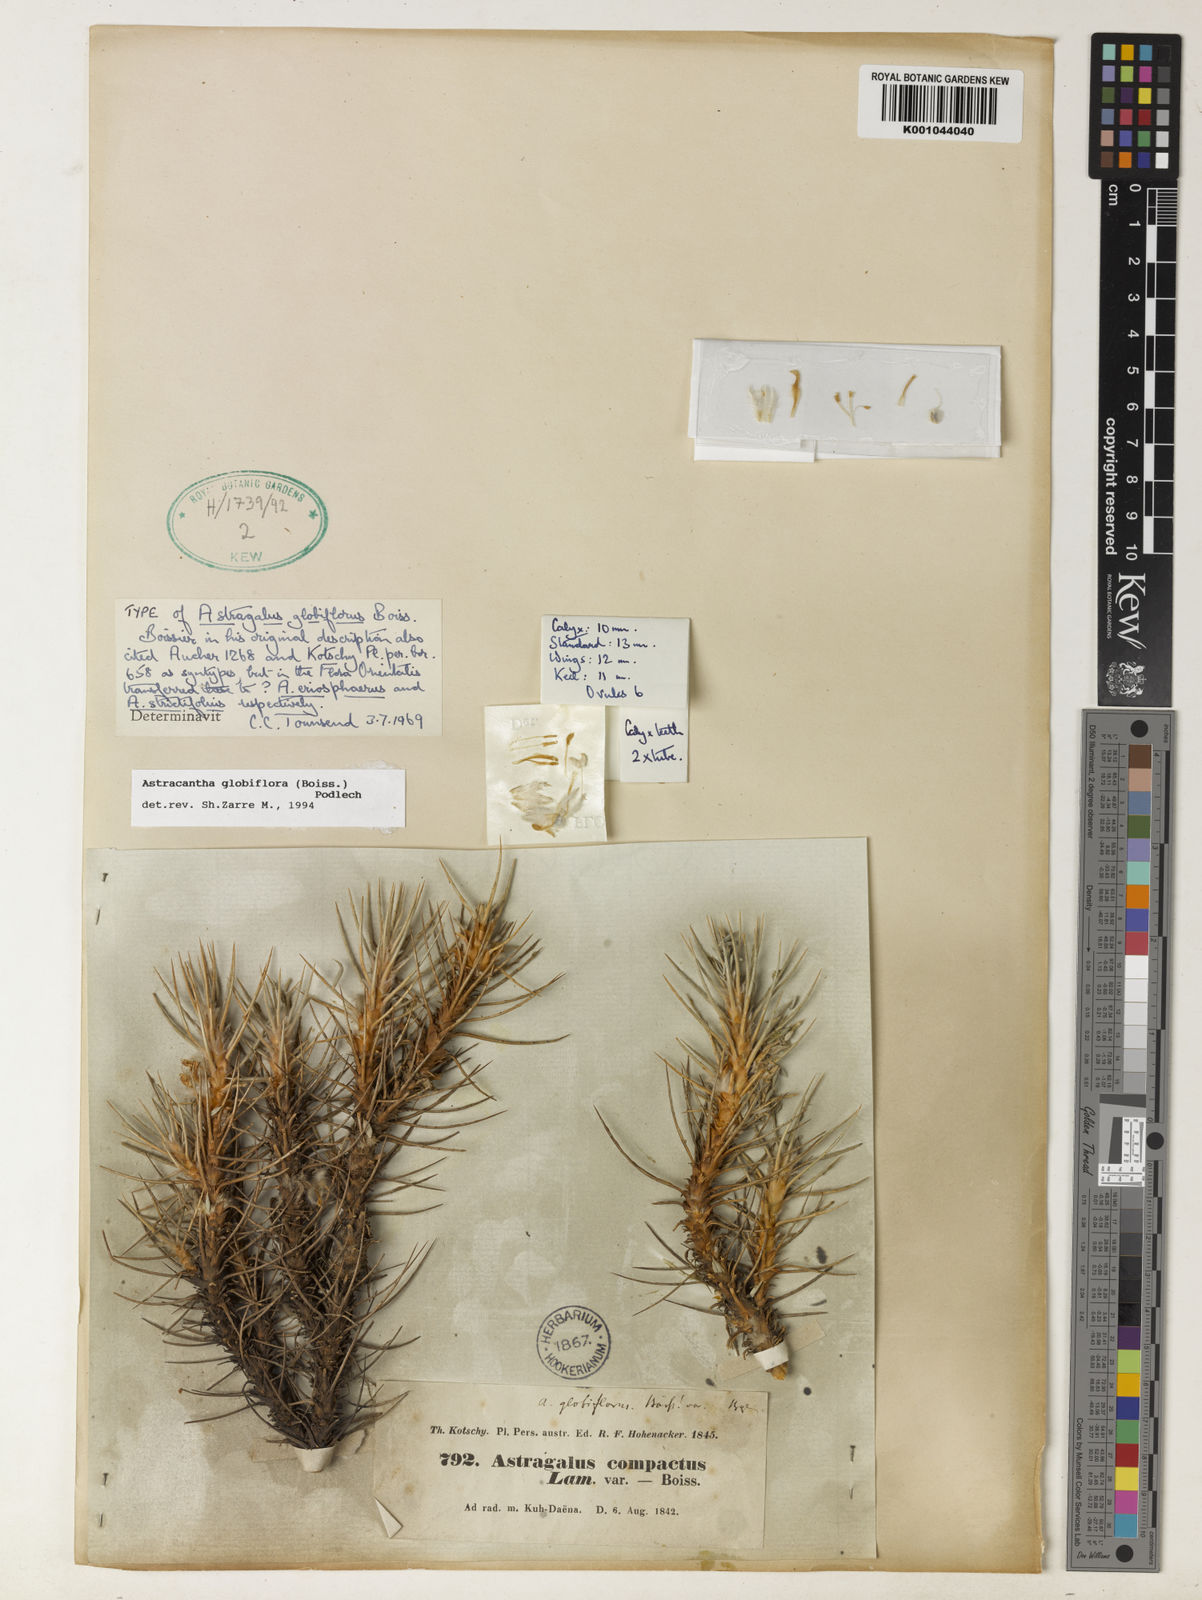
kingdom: Plantae
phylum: Tracheophyta
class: Magnoliopsida
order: Fabales
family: Fabaceae
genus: Astragalus
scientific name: Astragalus globiflorus
